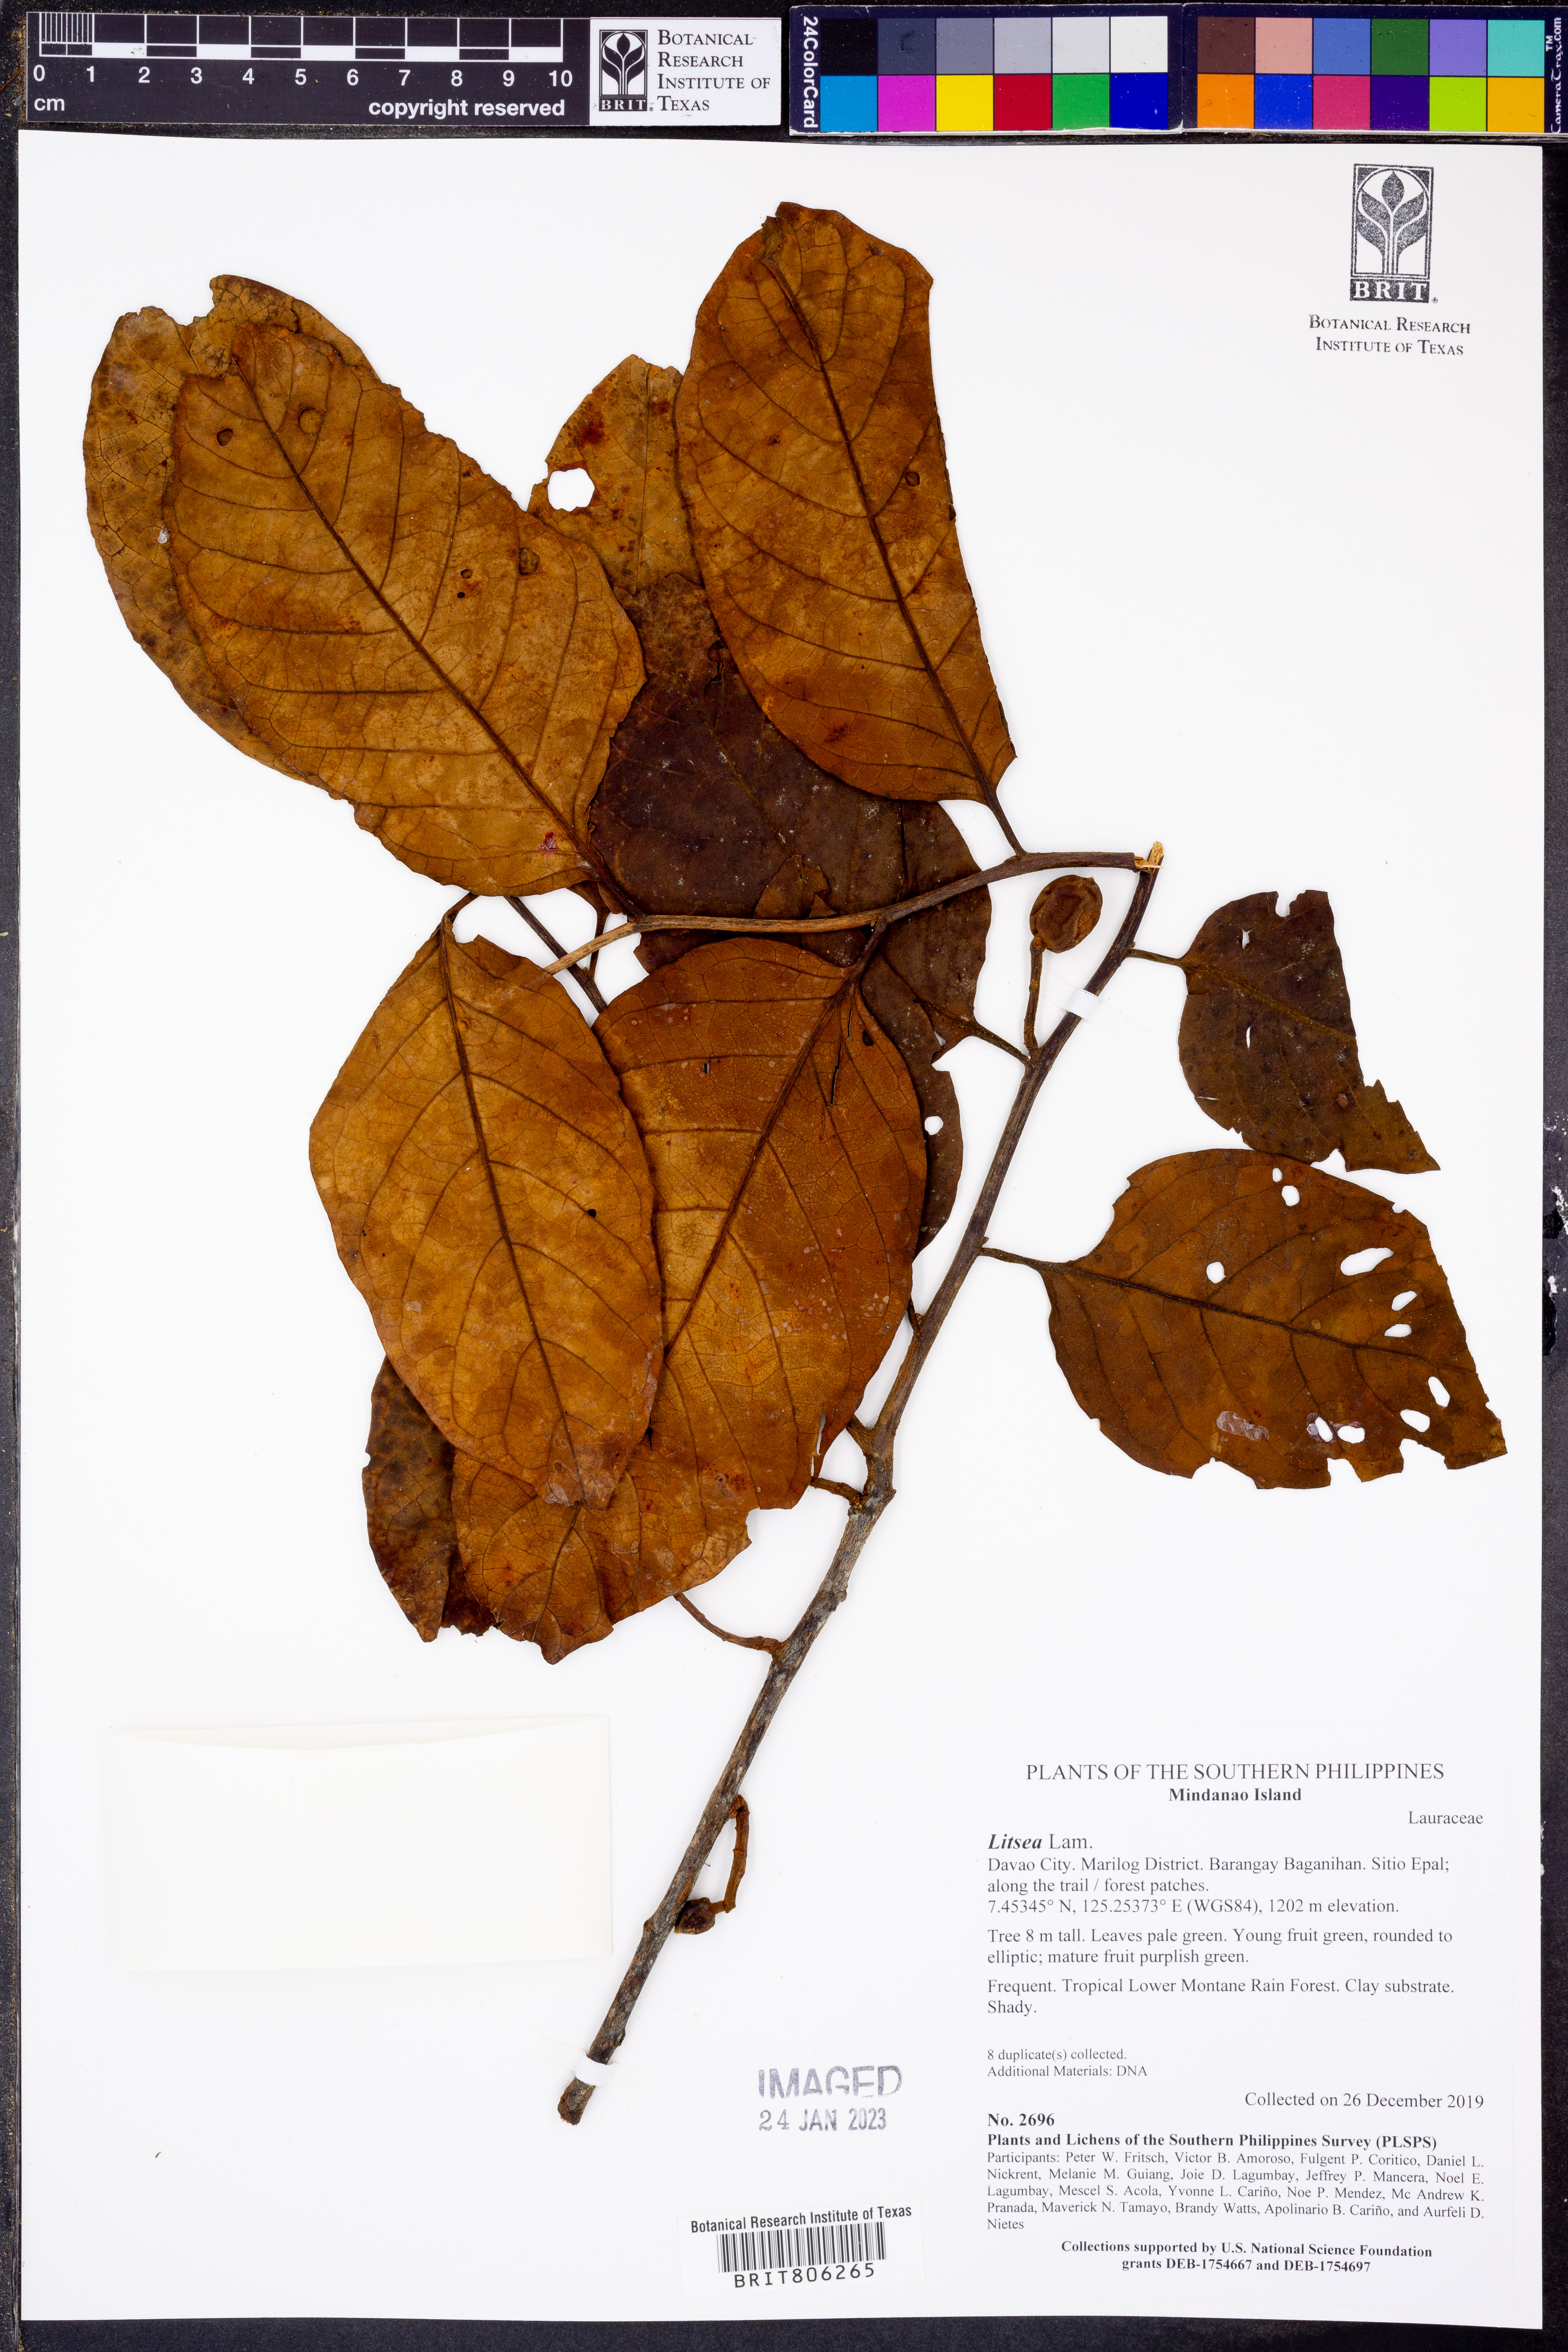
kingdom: Plantae
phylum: Tracheophyta
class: Magnoliopsida
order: Laurales
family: Lauraceae
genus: Litsea
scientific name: Litsea
